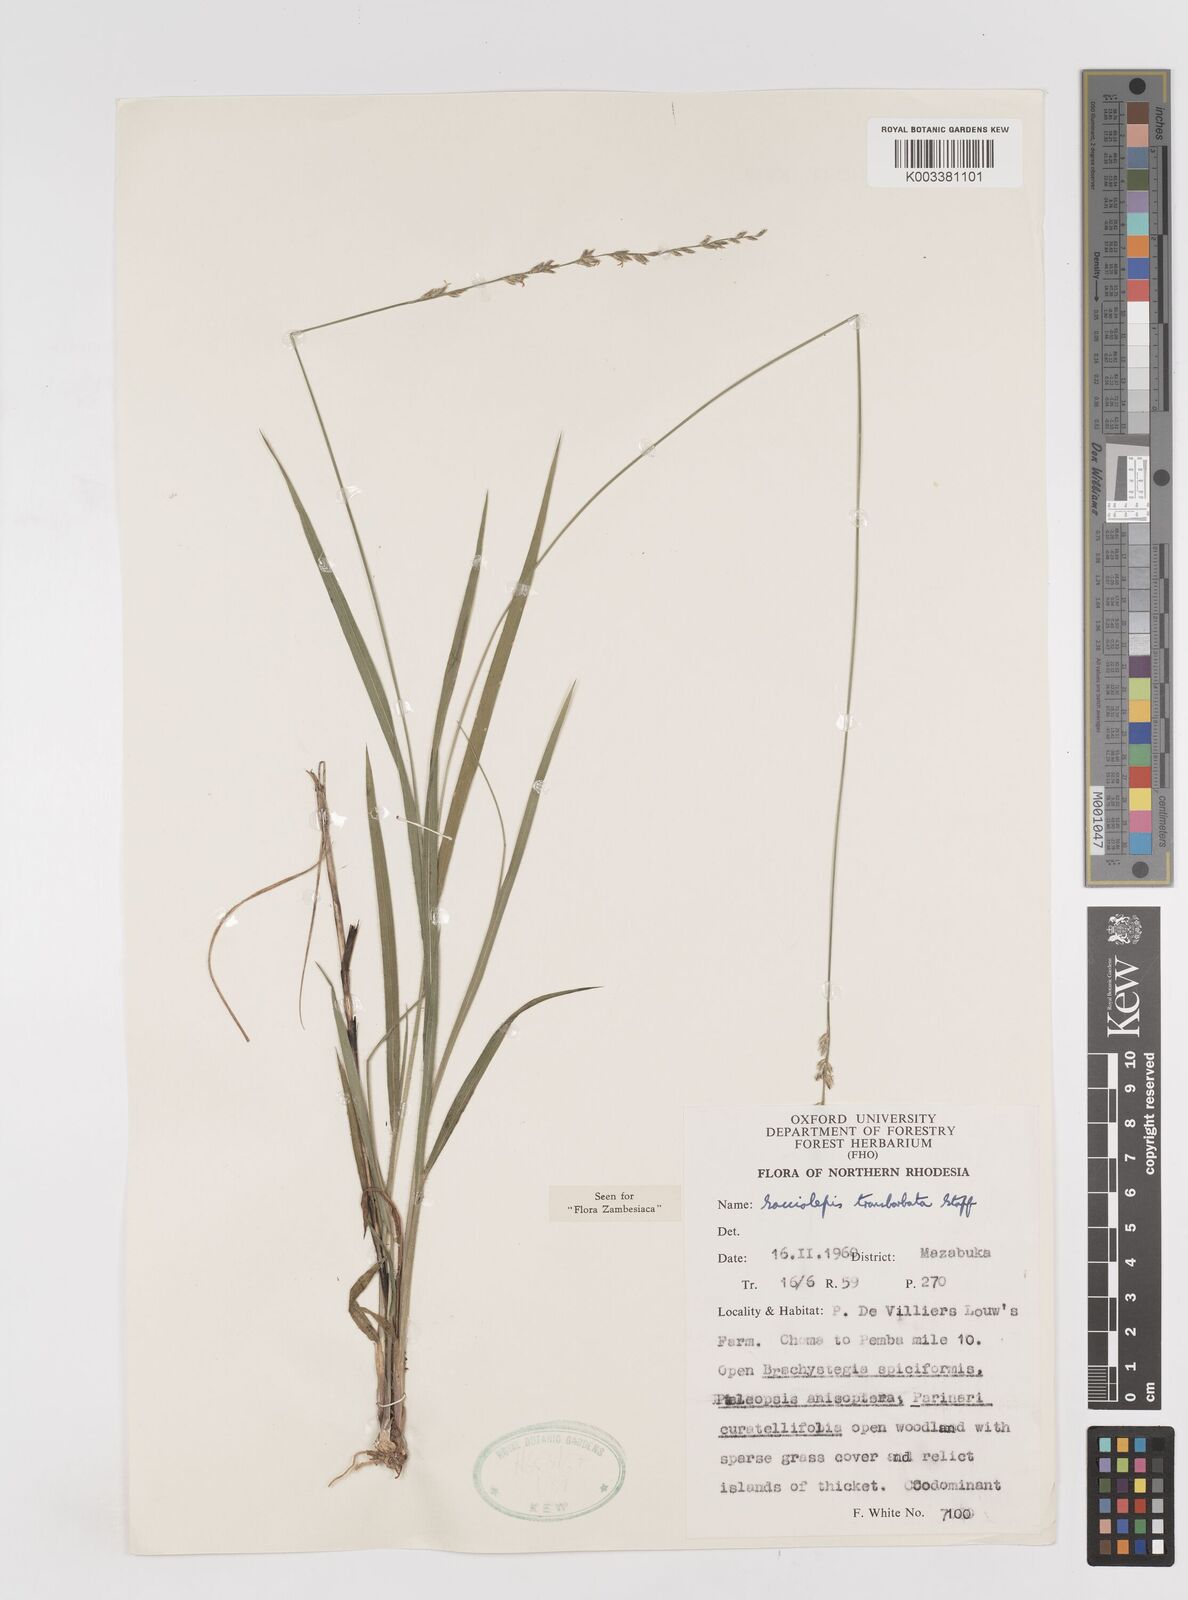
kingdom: Plantae
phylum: Tracheophyta
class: Liliopsida
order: Poales
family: Poaceae
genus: Sacciolepis
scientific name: Sacciolepis transbarbata
